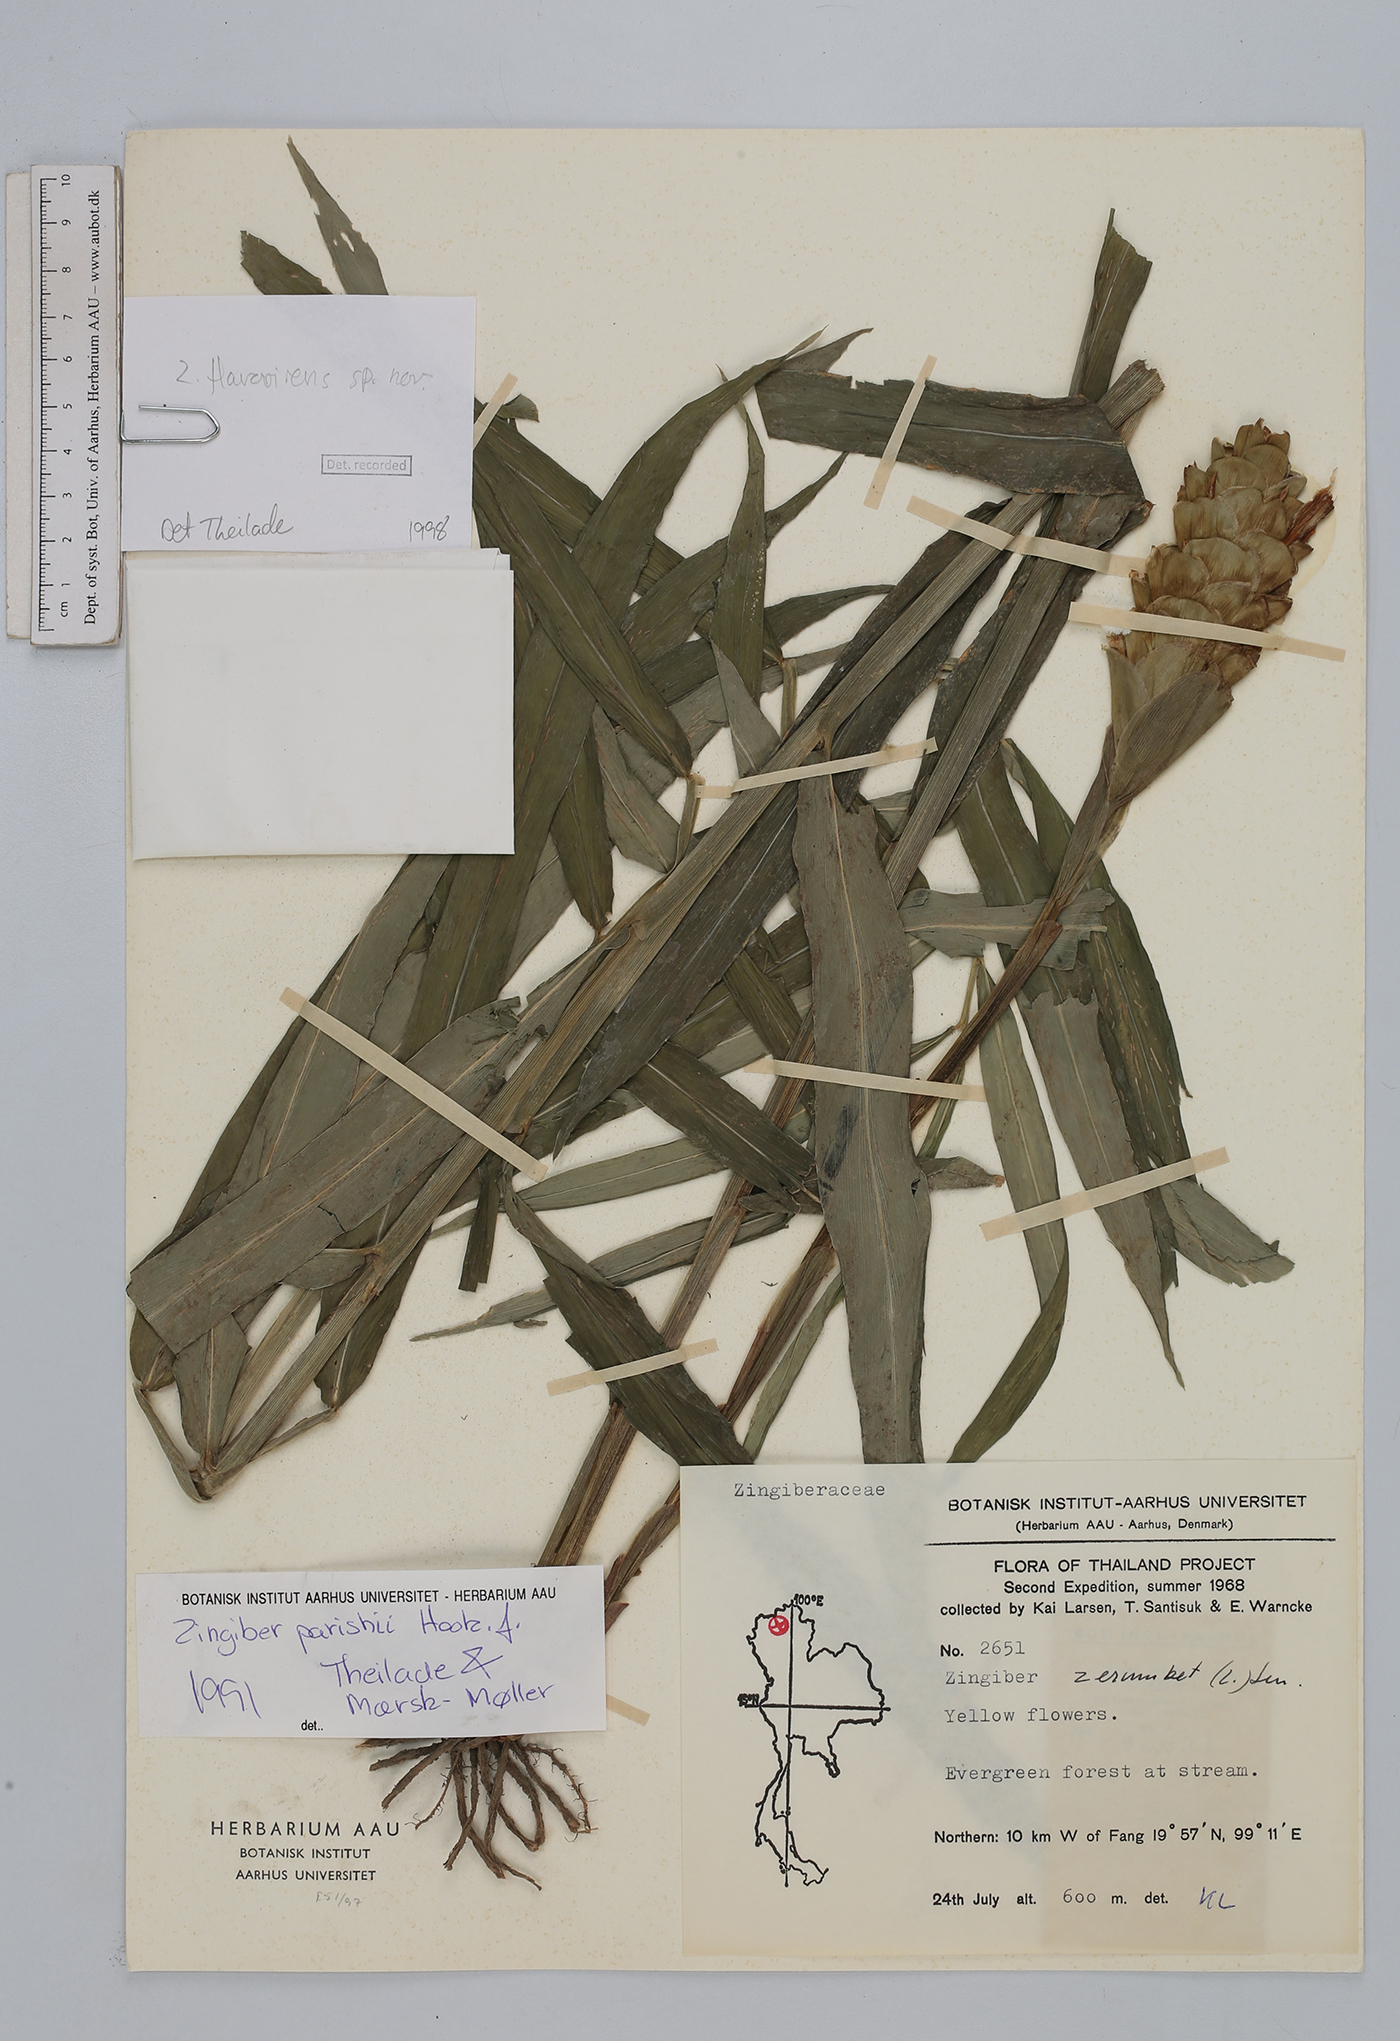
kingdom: Plantae
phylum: Tracheophyta
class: Liliopsida
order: Zingiberales
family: Zingiberaceae
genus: Zingiber
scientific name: Zingiber flavovirens
